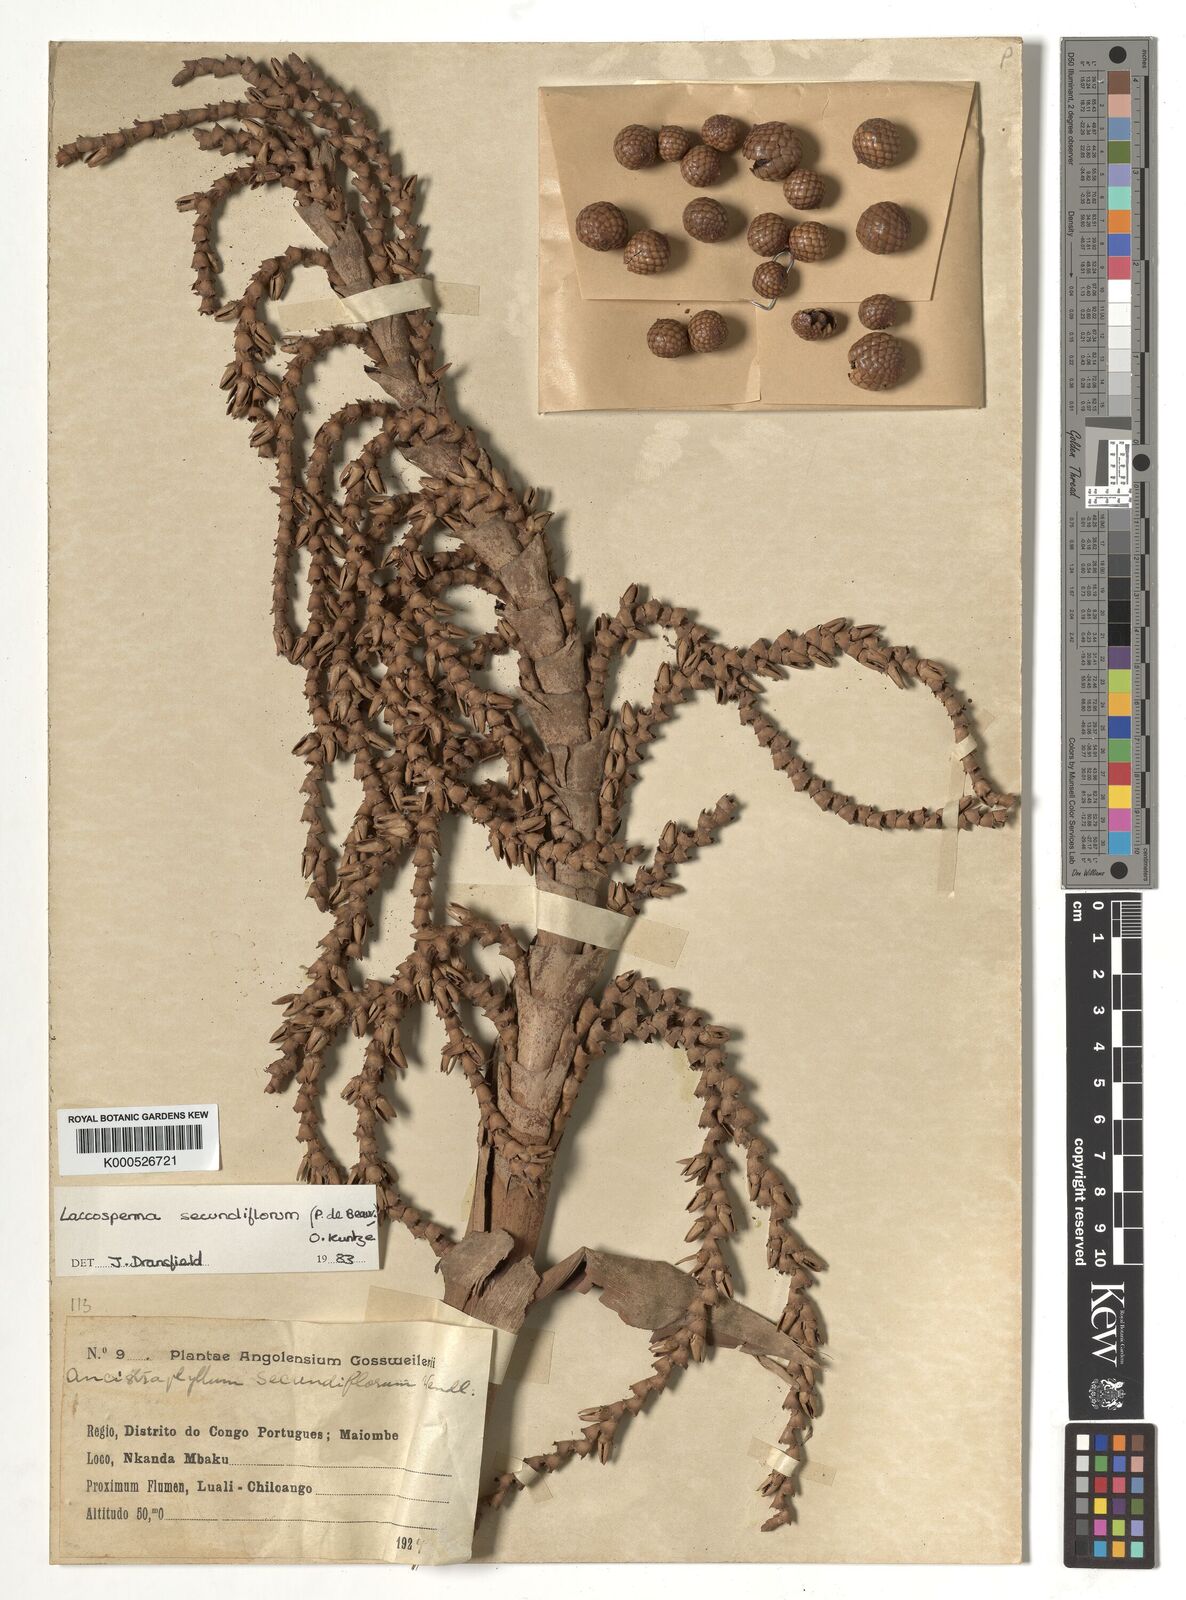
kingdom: Plantae
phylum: Tracheophyta
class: Liliopsida
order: Arecales
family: Arecaceae
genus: Laccosperma
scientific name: Laccosperma secundiflorum
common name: Rattan
